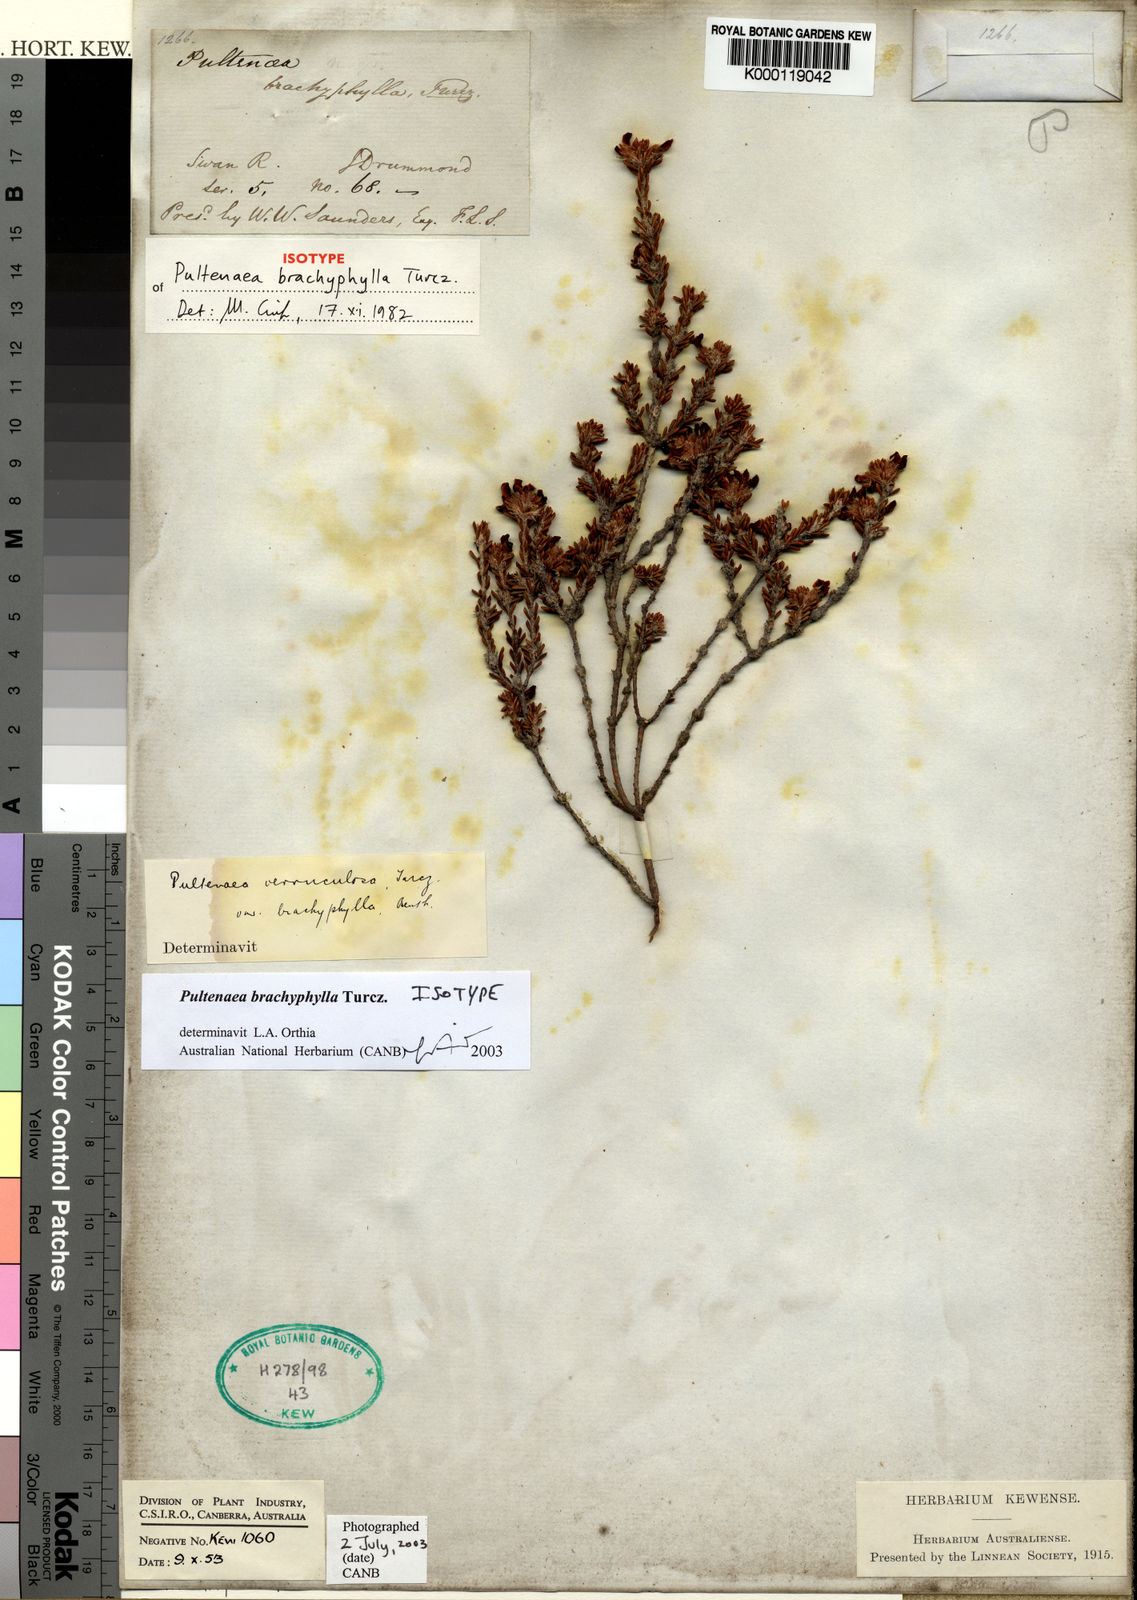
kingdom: Plantae
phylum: Tracheophyta
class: Magnoliopsida
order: Fabales
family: Fabaceae
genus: Pultenaea
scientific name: Pultenaea brachytropis
